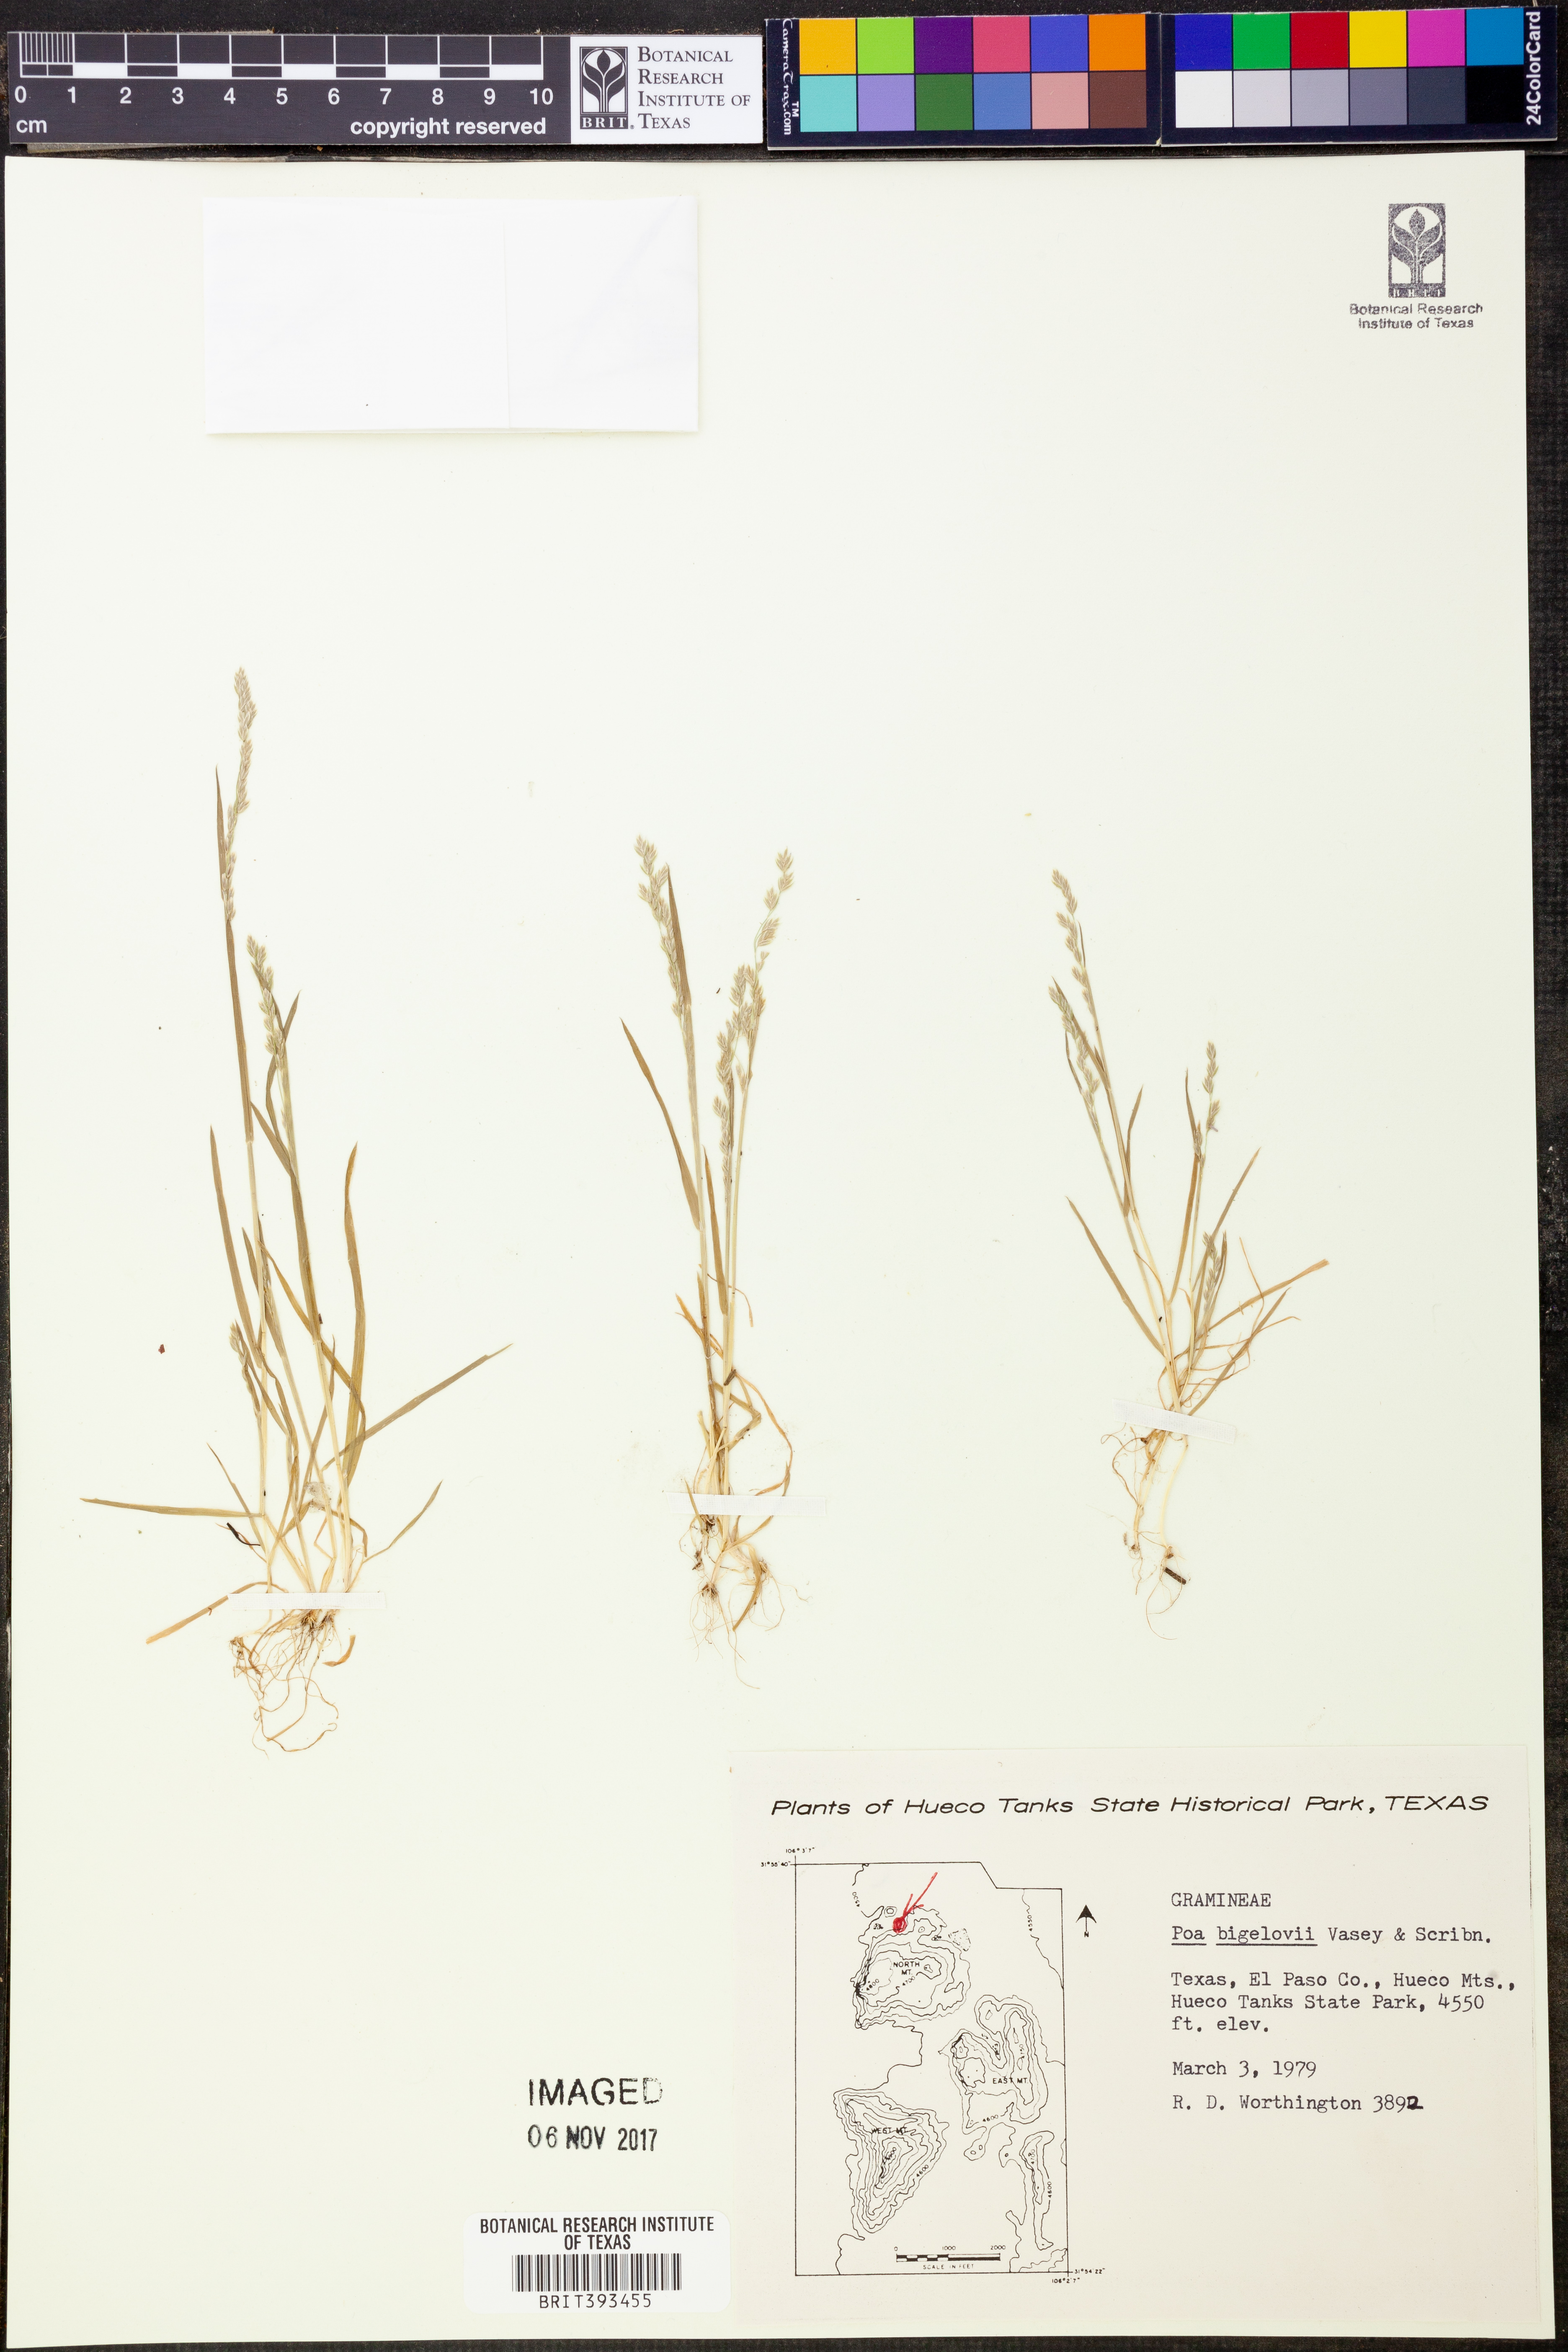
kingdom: Plantae
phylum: Tracheophyta
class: Liliopsida
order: Poales
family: Poaceae
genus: Poa
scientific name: Poa bigelovii
